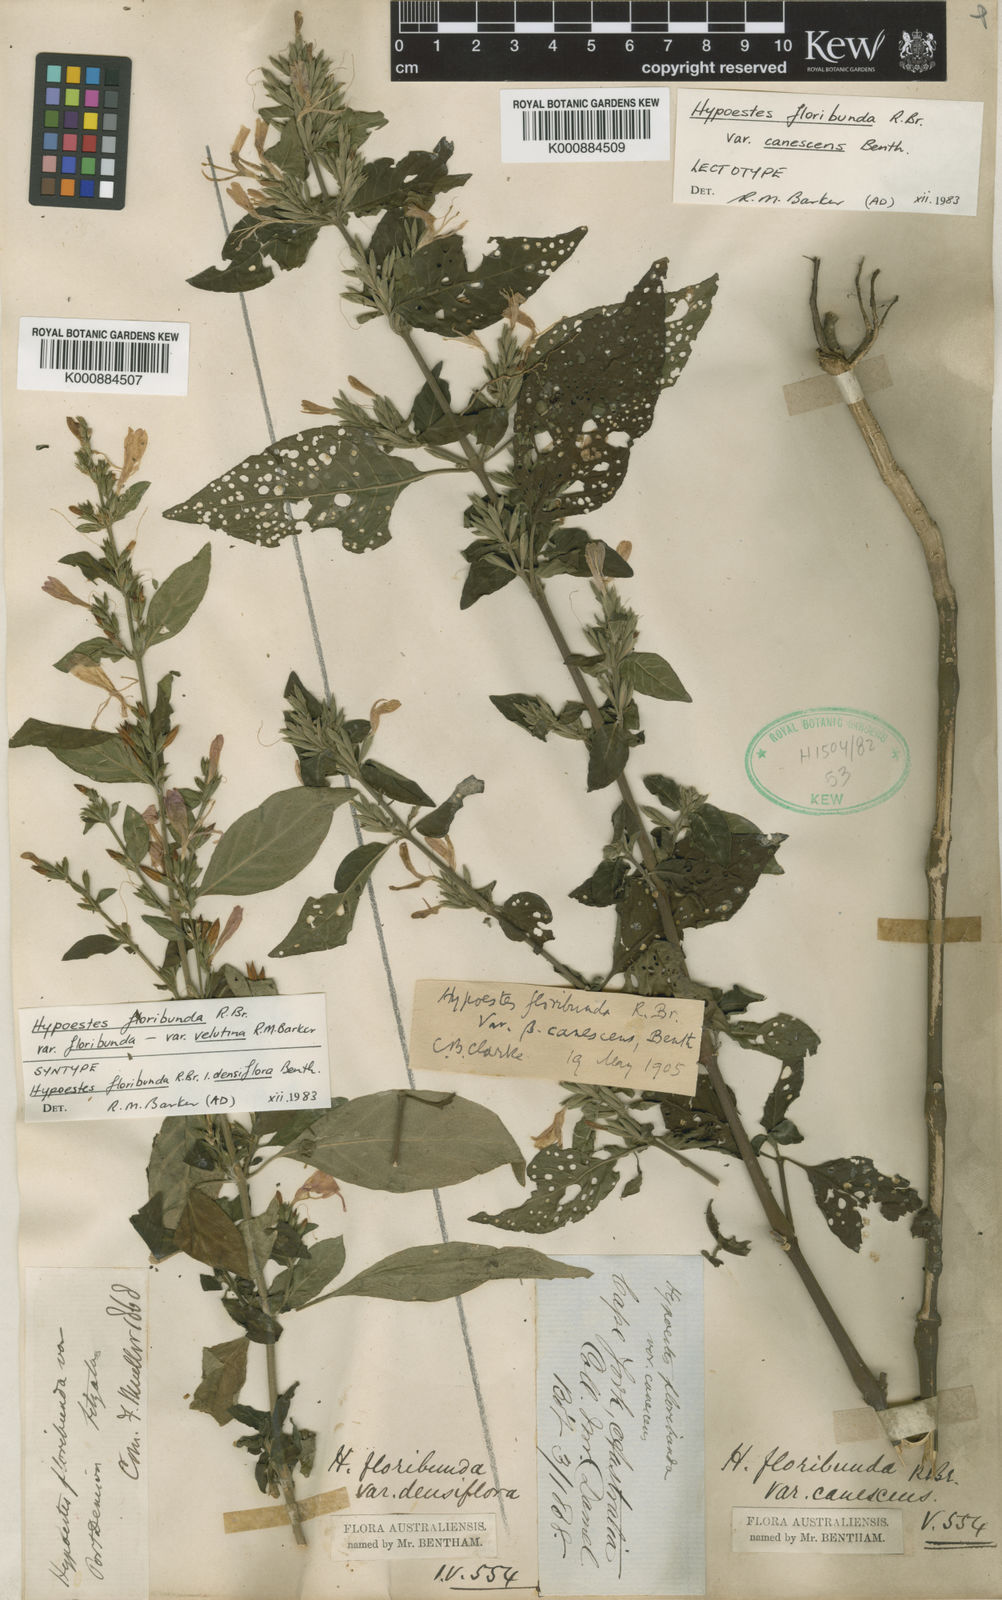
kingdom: Plantae
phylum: Tracheophyta
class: Magnoliopsida
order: Lamiales
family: Acanthaceae
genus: Hypoestes
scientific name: Hypoestes floribunda
